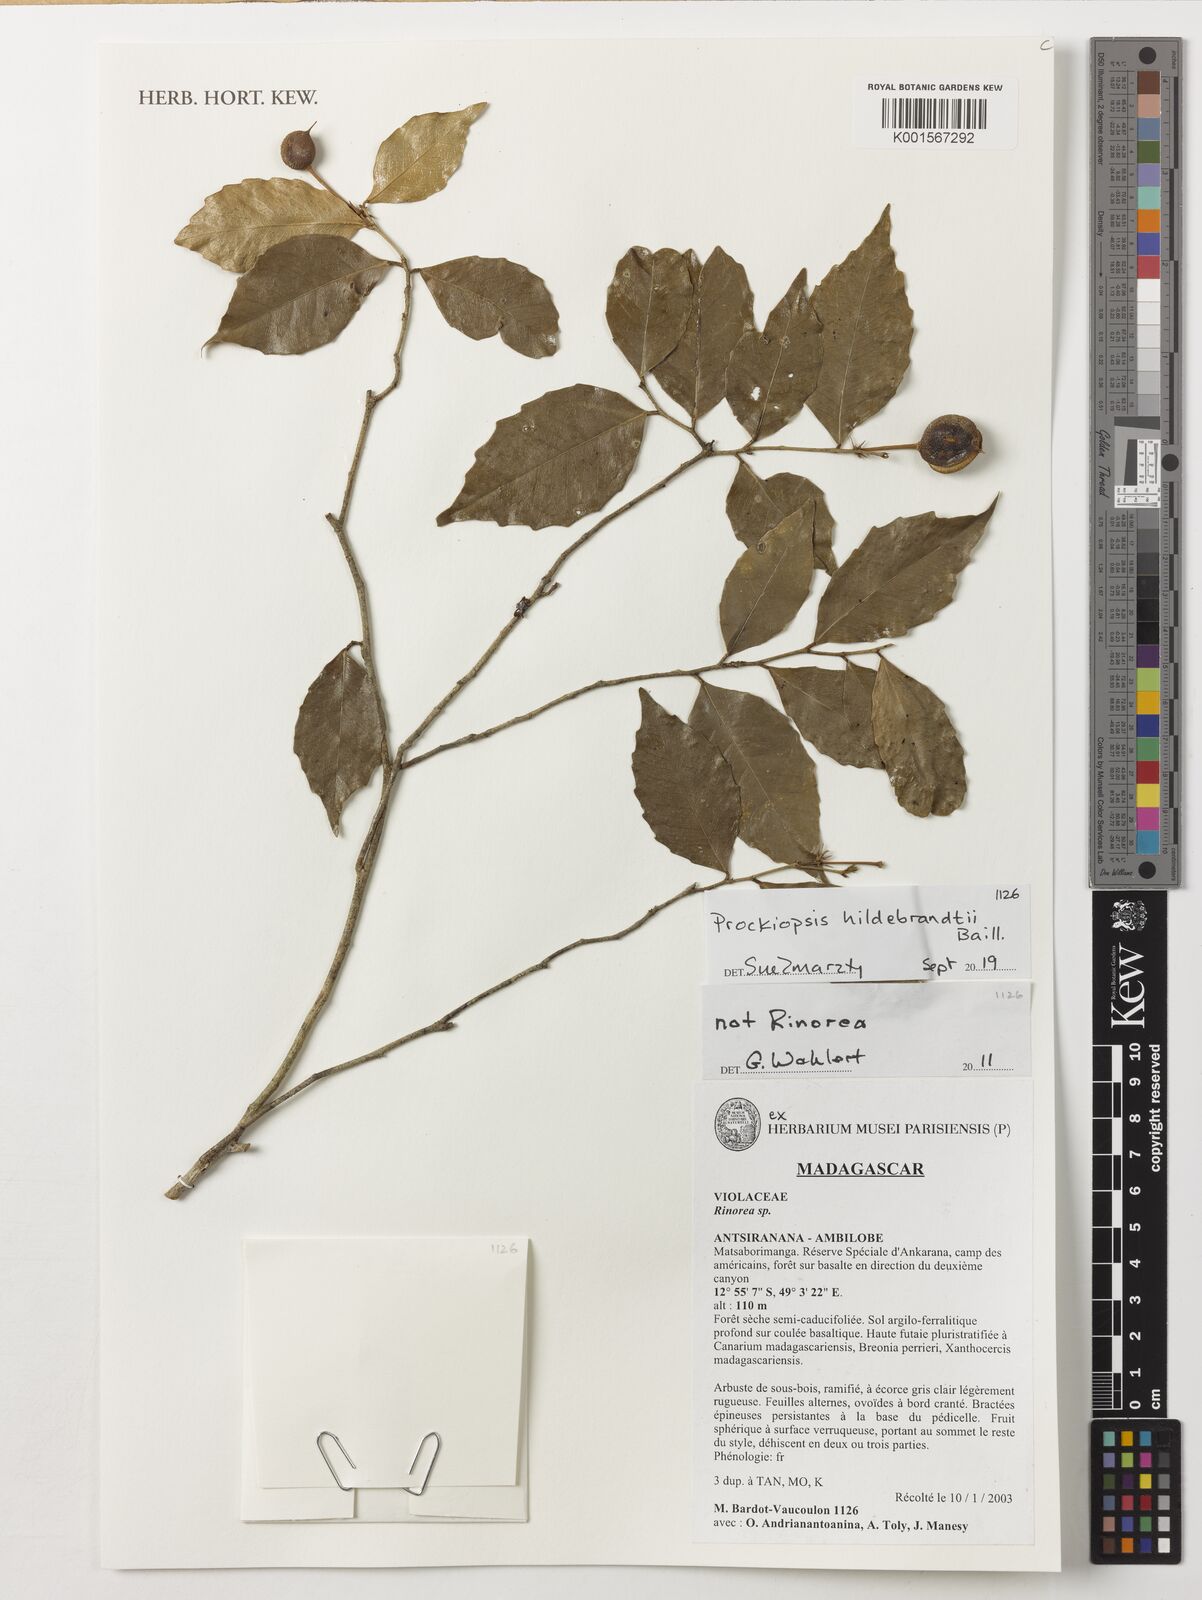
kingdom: Plantae
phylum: Tracheophyta
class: Magnoliopsida
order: Malpighiales
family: Achariaceae
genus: Prockiopsis
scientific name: Prockiopsis hildebrandtii
